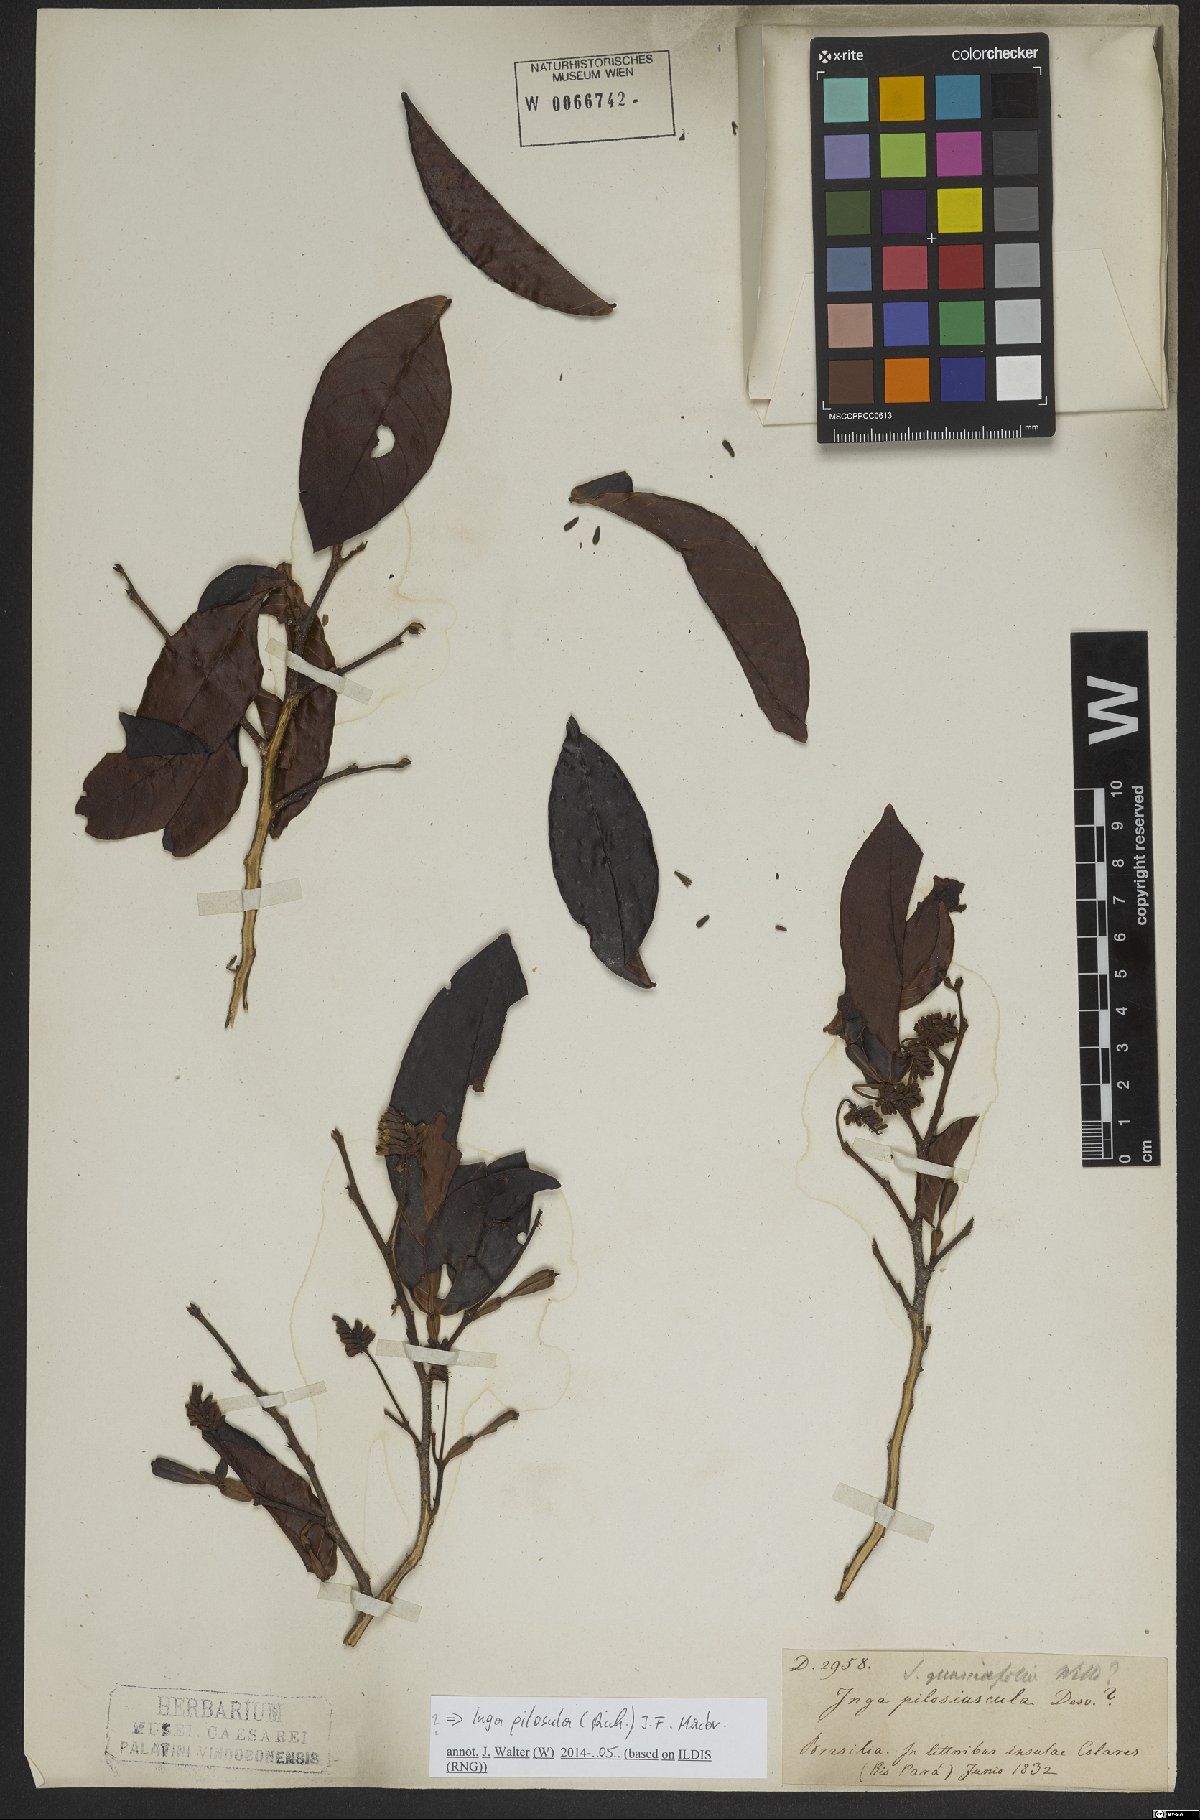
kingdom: Plantae
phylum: Tracheophyta
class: Magnoliopsida
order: Fabales
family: Fabaceae
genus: Inga
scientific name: Inga pilosula
